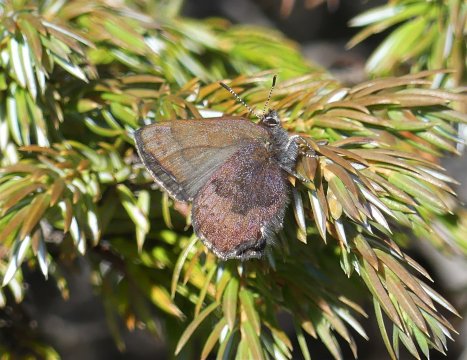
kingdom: Animalia
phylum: Arthropoda
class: Insecta
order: Lepidoptera
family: Lycaenidae
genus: Incisalia
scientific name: Incisalia irioides
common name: Brown Elfin
